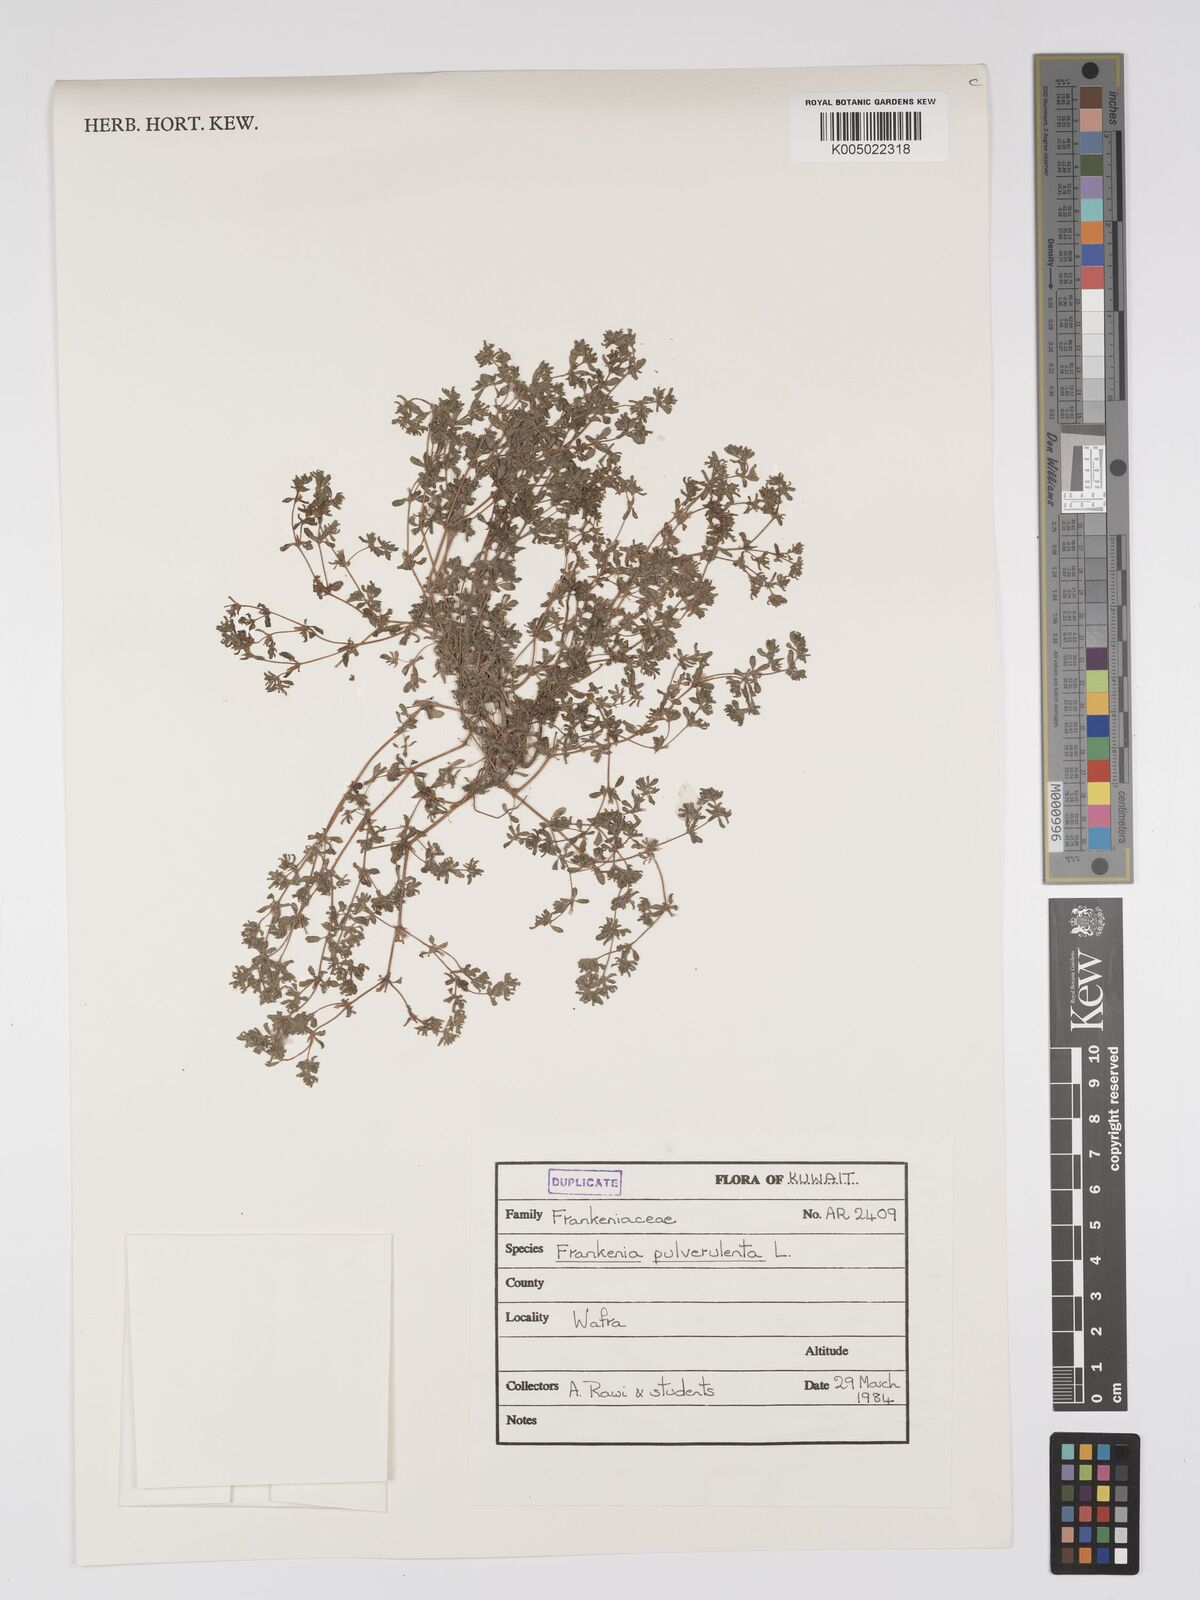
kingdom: Plantae
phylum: Tracheophyta
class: Magnoliopsida
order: Caryophyllales
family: Frankeniaceae
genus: Frankenia
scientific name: Frankenia pulverulenta
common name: European seaheath
